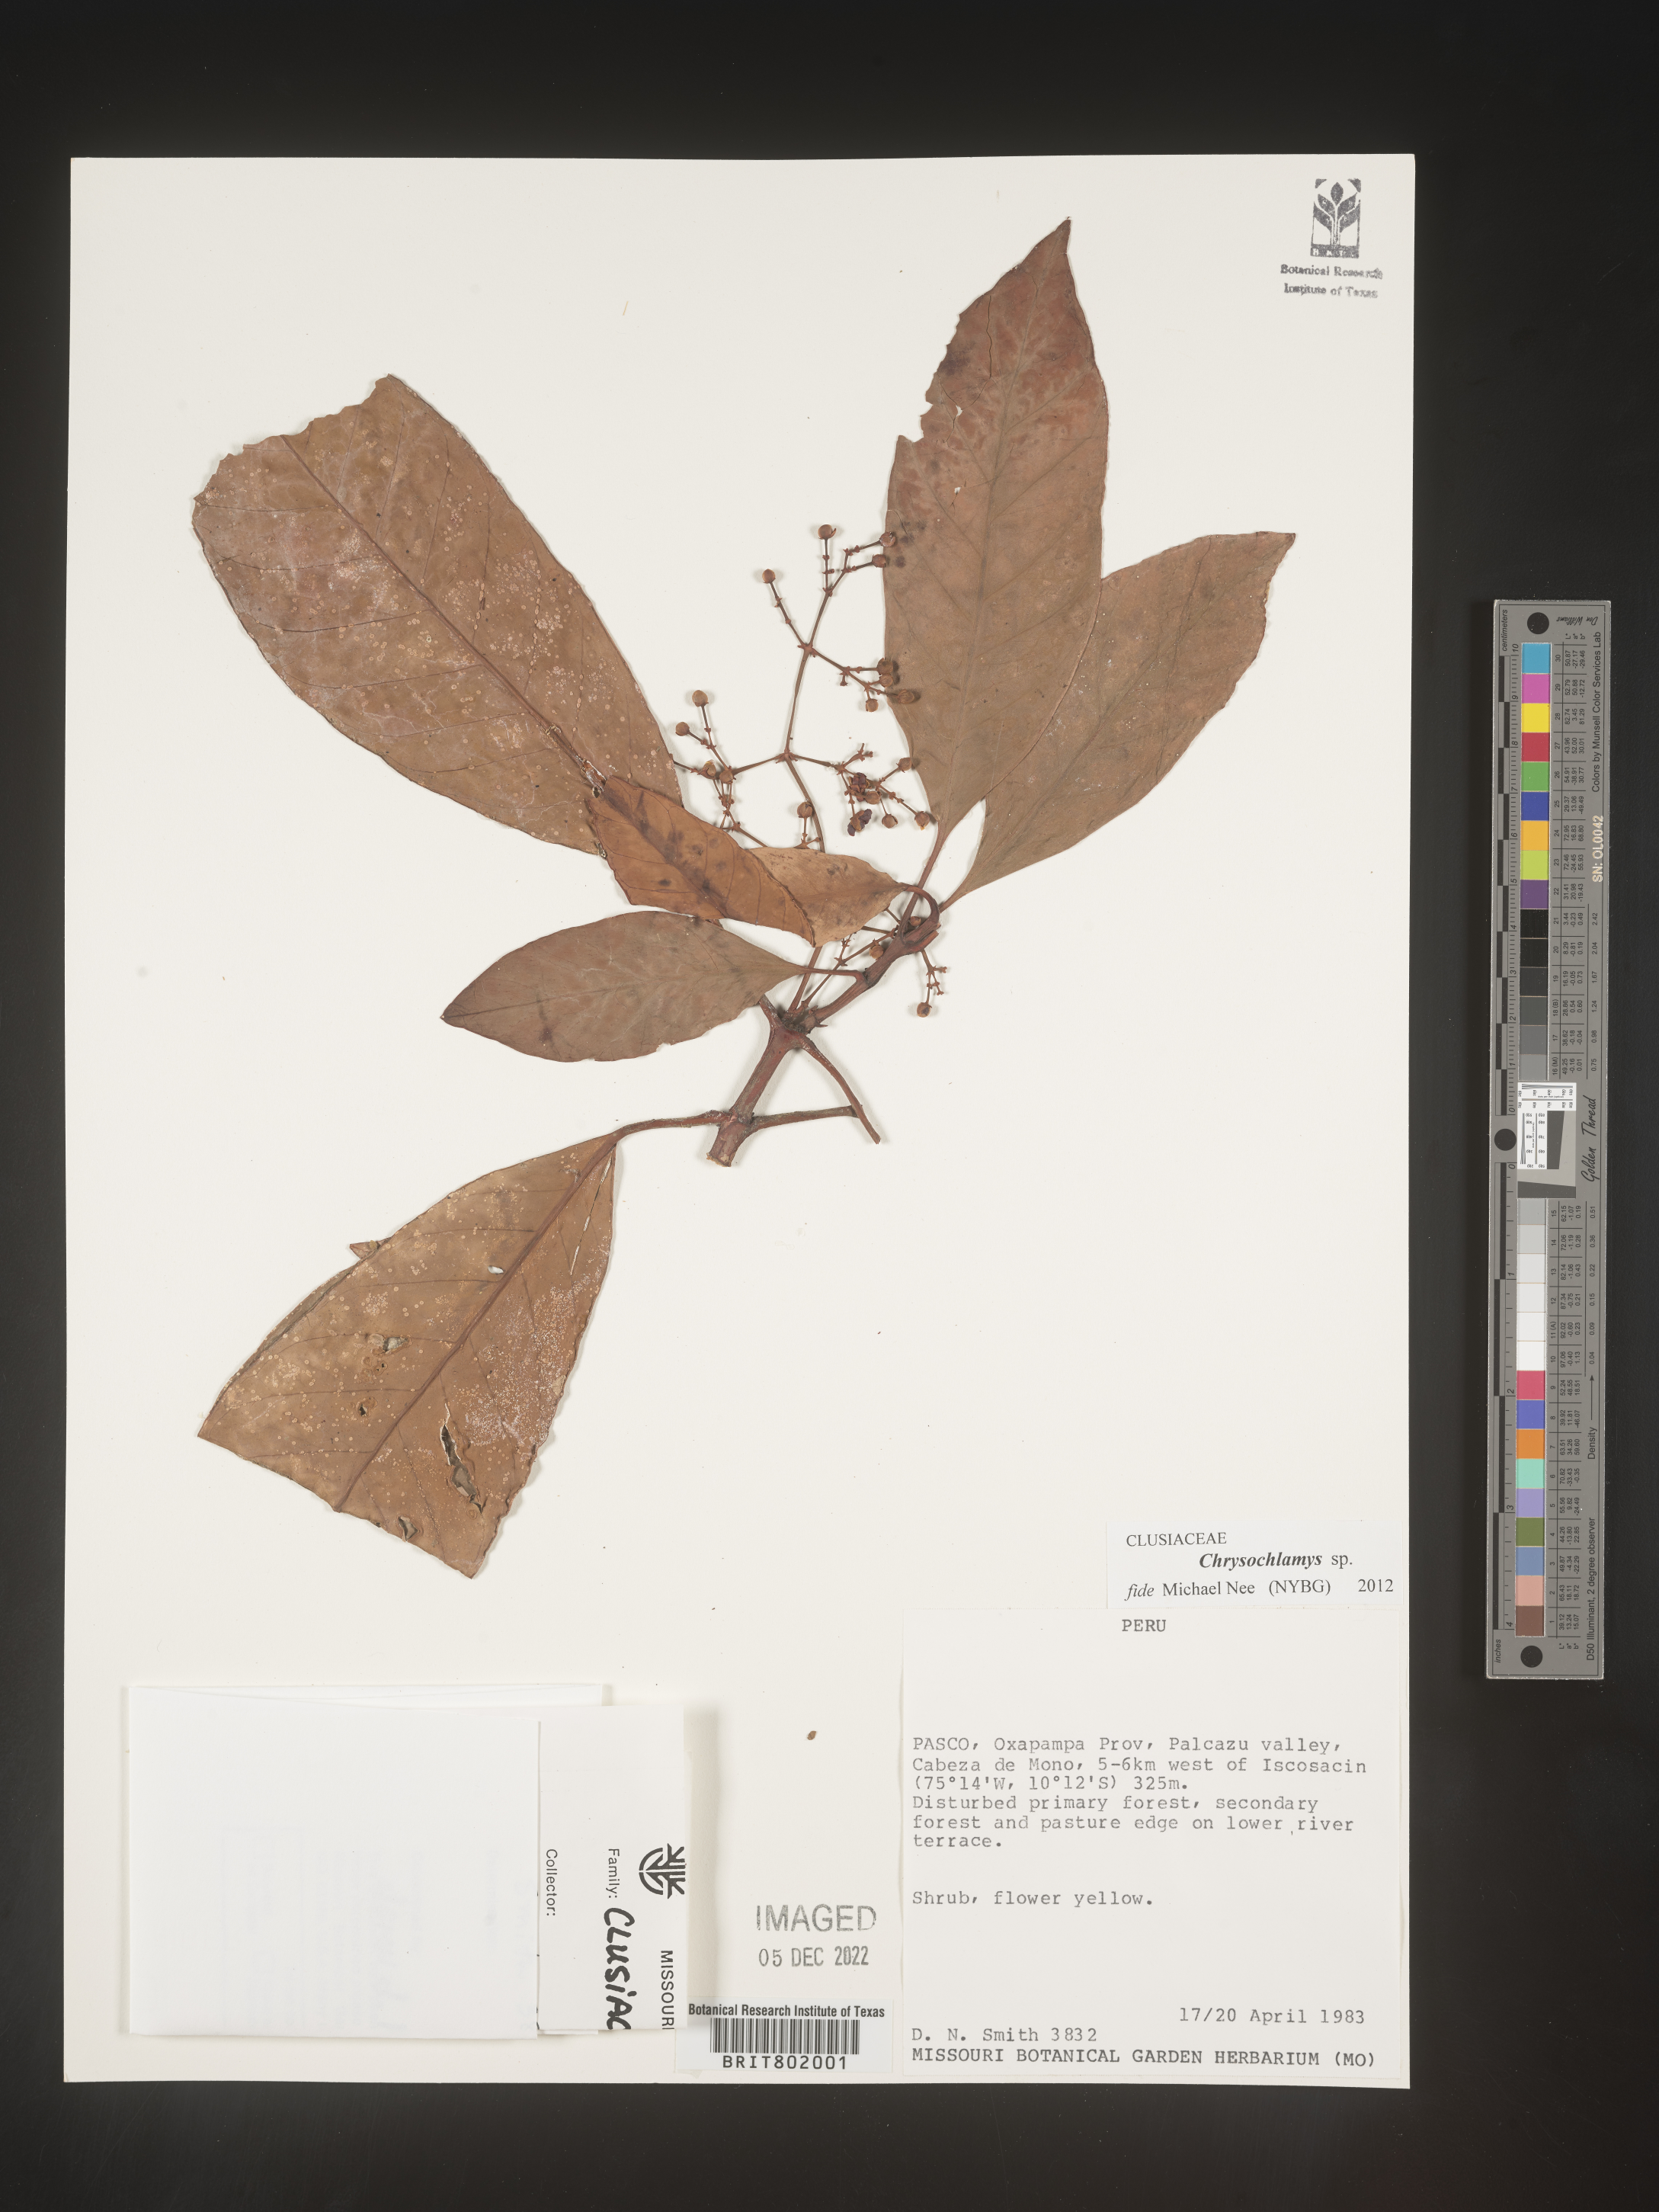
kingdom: Plantae
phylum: Tracheophyta
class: Magnoliopsida
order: Malpighiales
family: Clusiaceae
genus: Chrysochlamys
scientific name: Chrysochlamys
